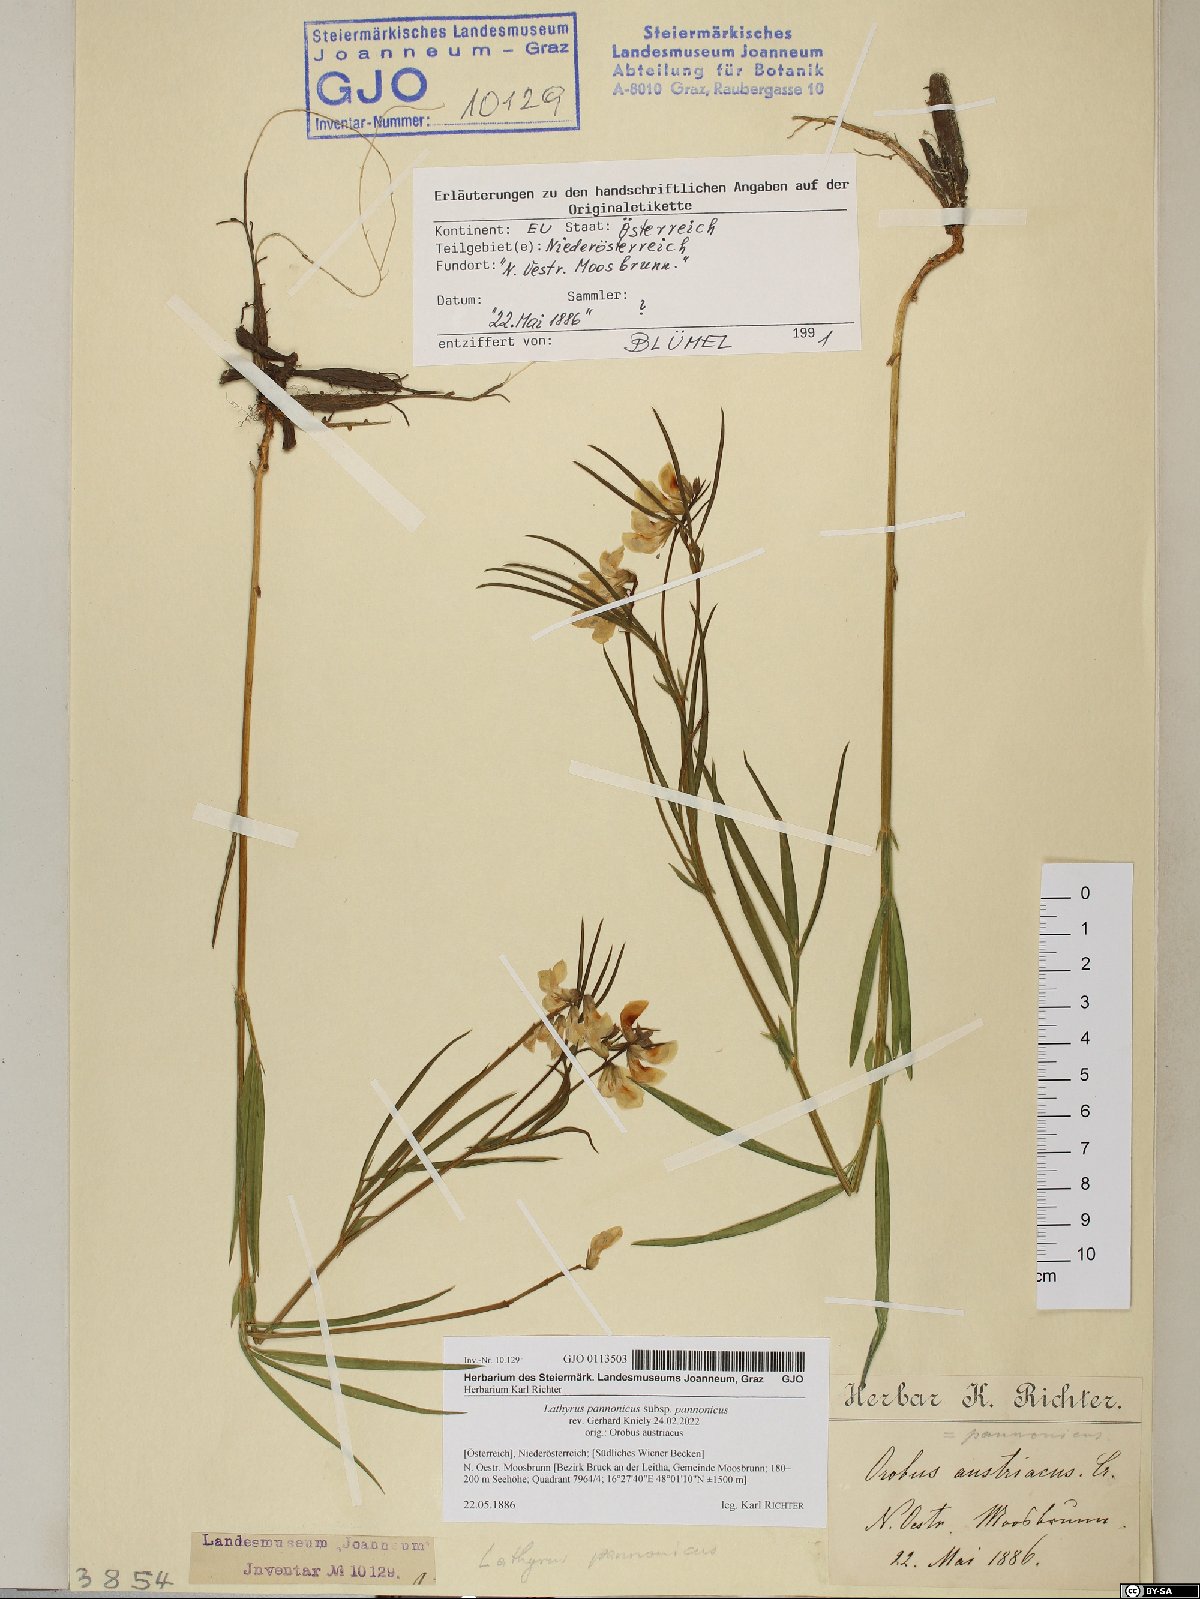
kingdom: Plantae
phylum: Tracheophyta
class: Magnoliopsida
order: Fabales
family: Fabaceae
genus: Lathyrus
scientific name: Lathyrus pannonicus
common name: Pea
